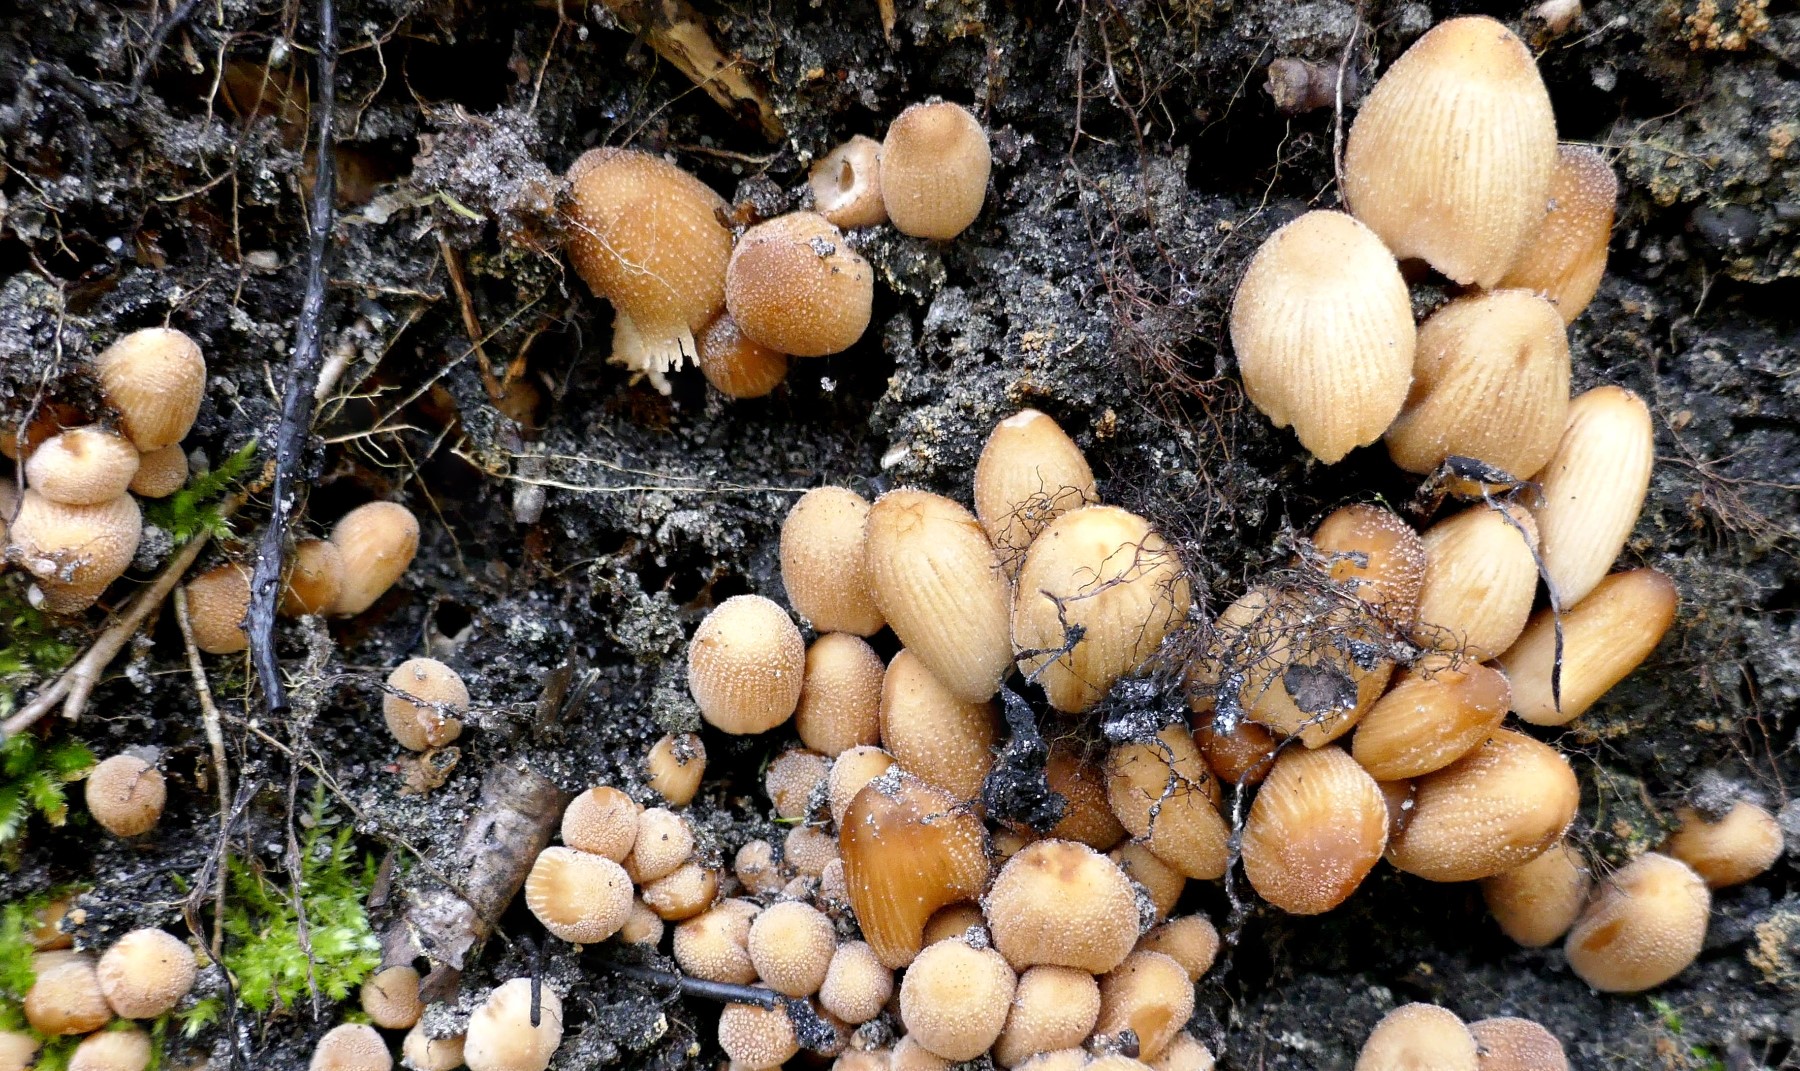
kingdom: Fungi
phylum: Basidiomycota
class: Agaricomycetes
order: Agaricales
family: Psathyrellaceae
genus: Coprinellus
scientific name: Coprinellus micaceus
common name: glimmer-blækhat
